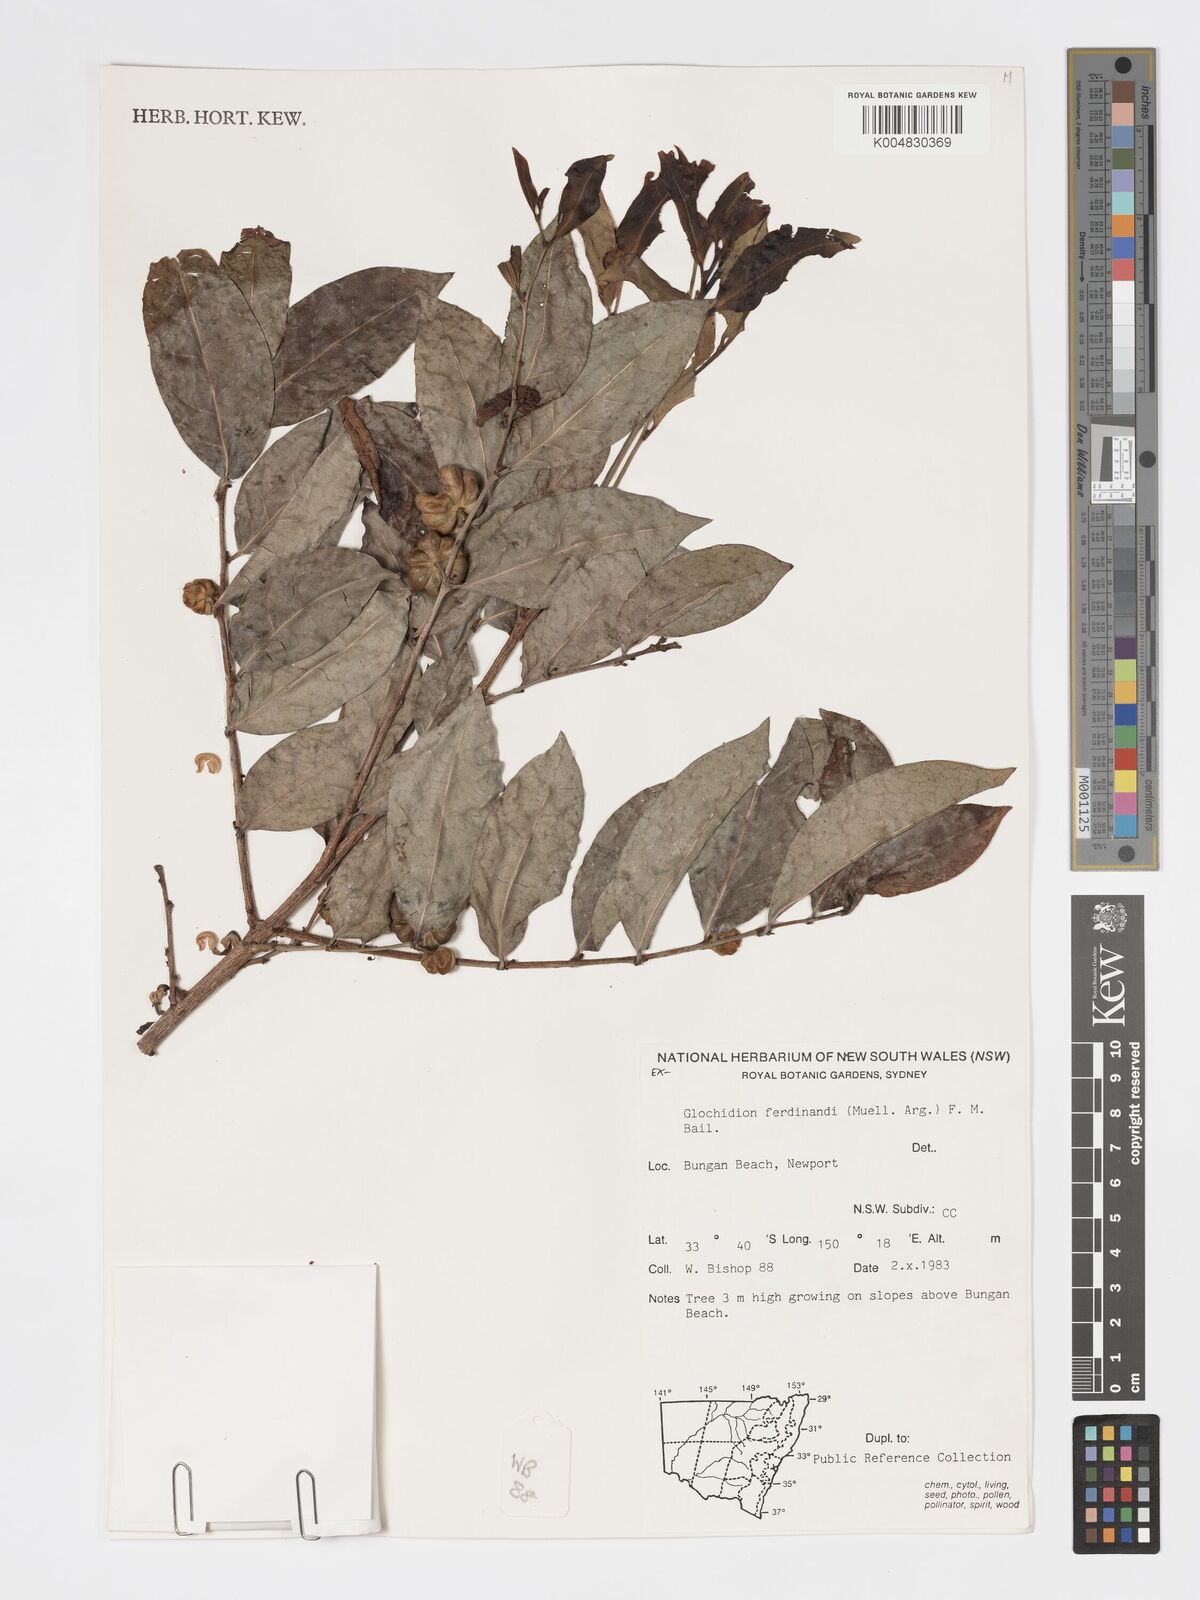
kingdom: Plantae
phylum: Tracheophyta
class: Magnoliopsida
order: Malpighiales
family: Phyllanthaceae
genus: Glochidion
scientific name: Glochidion ferdinandi
